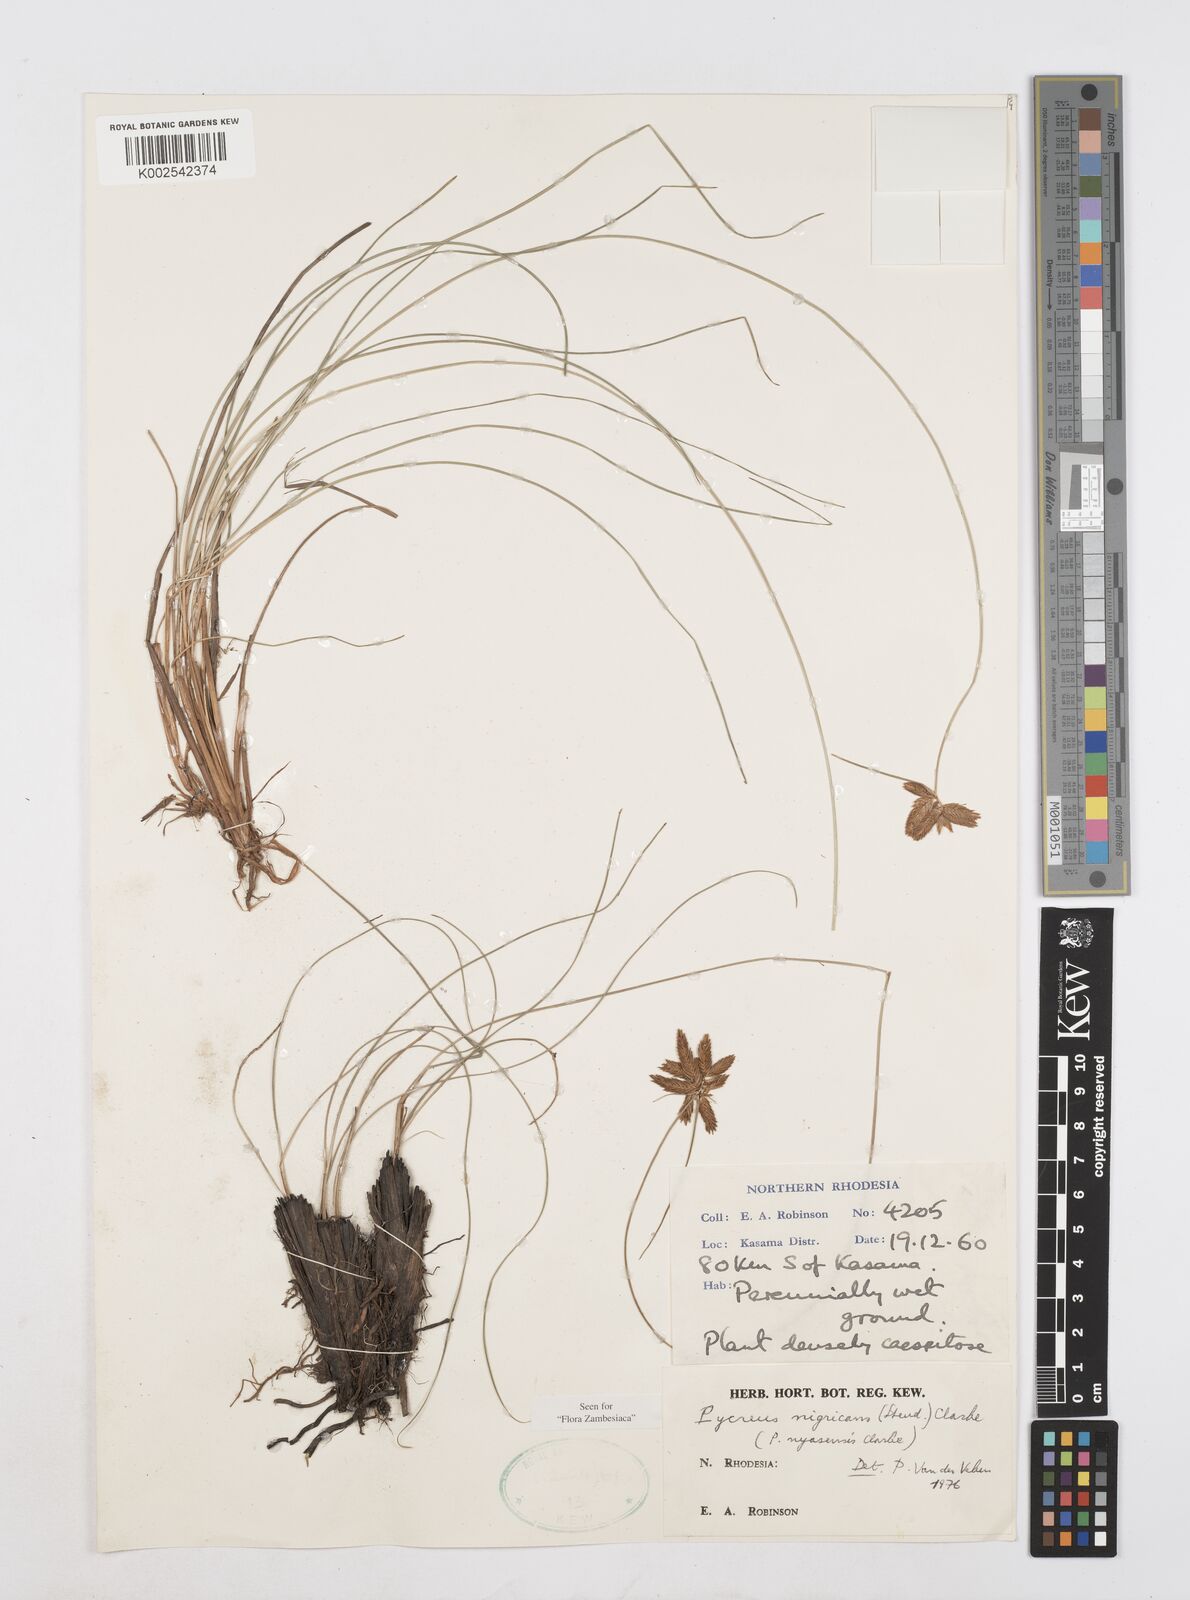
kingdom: Plantae
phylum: Tracheophyta
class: Liliopsida
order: Poales
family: Cyperaceae
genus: Cyperus
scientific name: Cyperus nigricans
